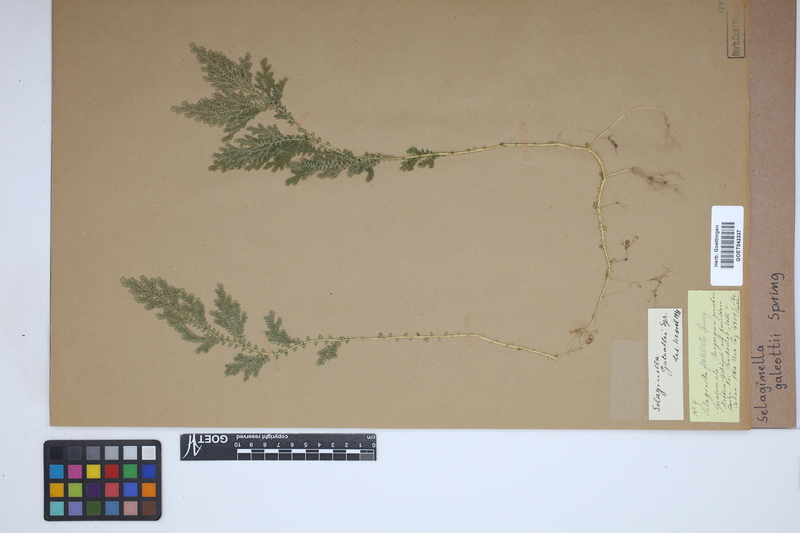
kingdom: Plantae
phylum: Tracheophyta
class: Lycopodiopsida
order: Selaginellales
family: Selaginellaceae
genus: Selaginella
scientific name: Selaginella stellata
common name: Starry spikemoss
